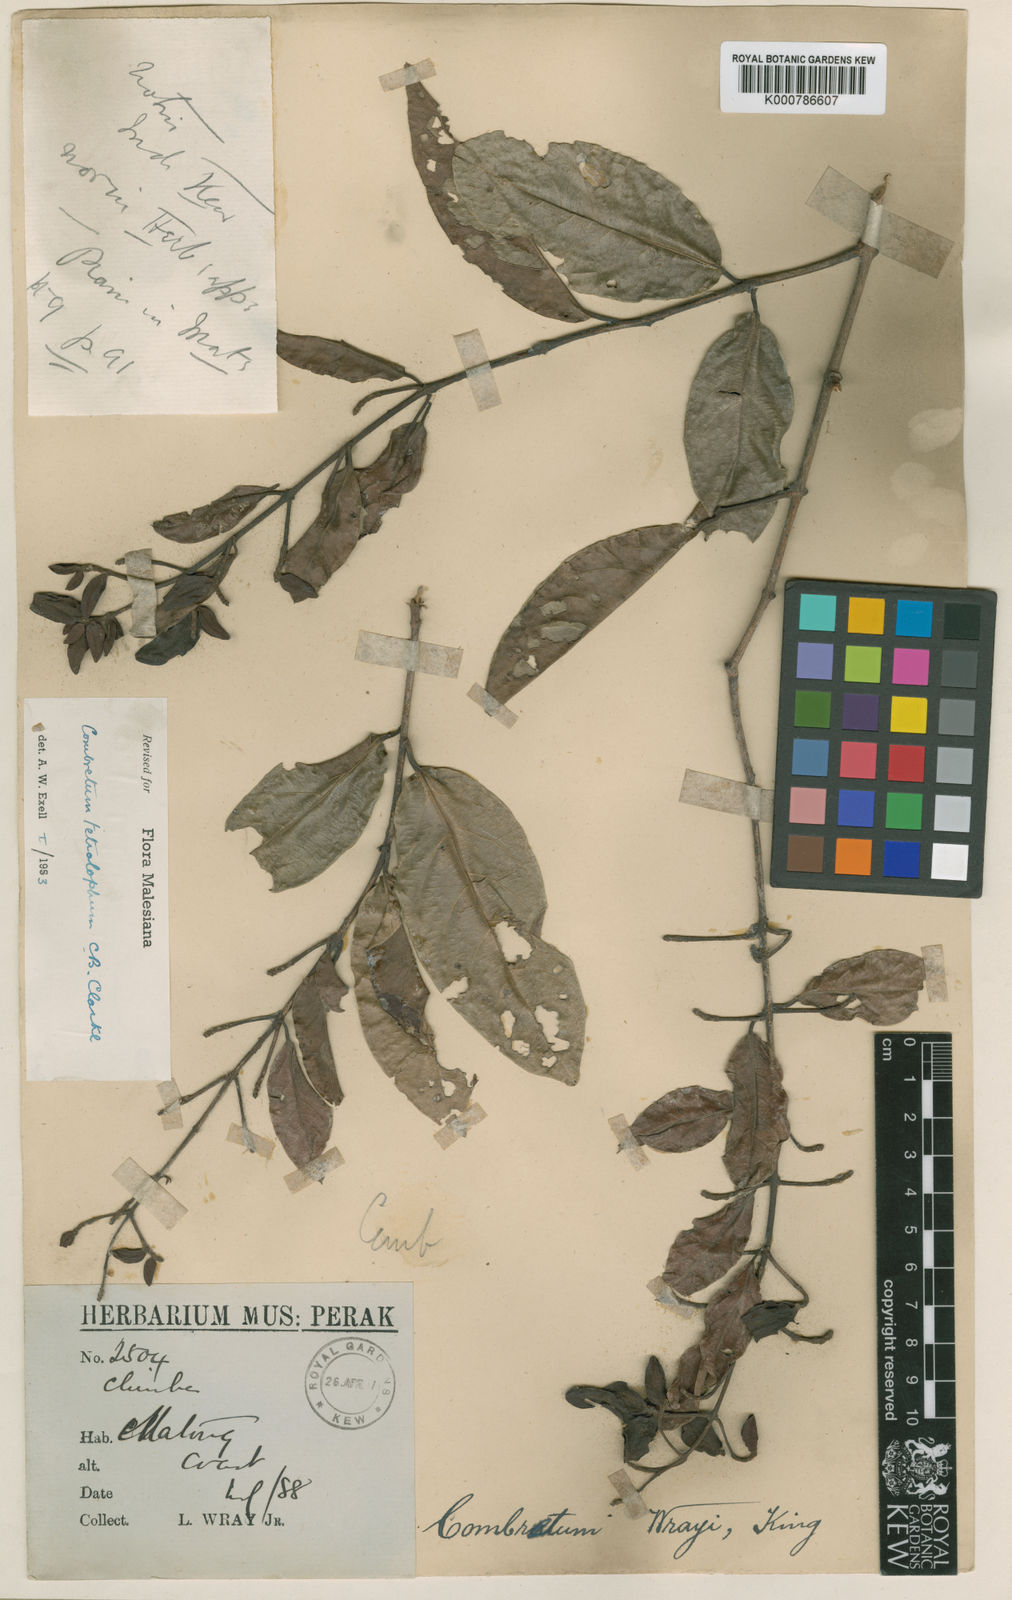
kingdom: Plantae
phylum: Tracheophyta
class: Magnoliopsida
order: Myrtales
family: Combretaceae
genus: Combretum
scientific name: Combretum tetralophum
